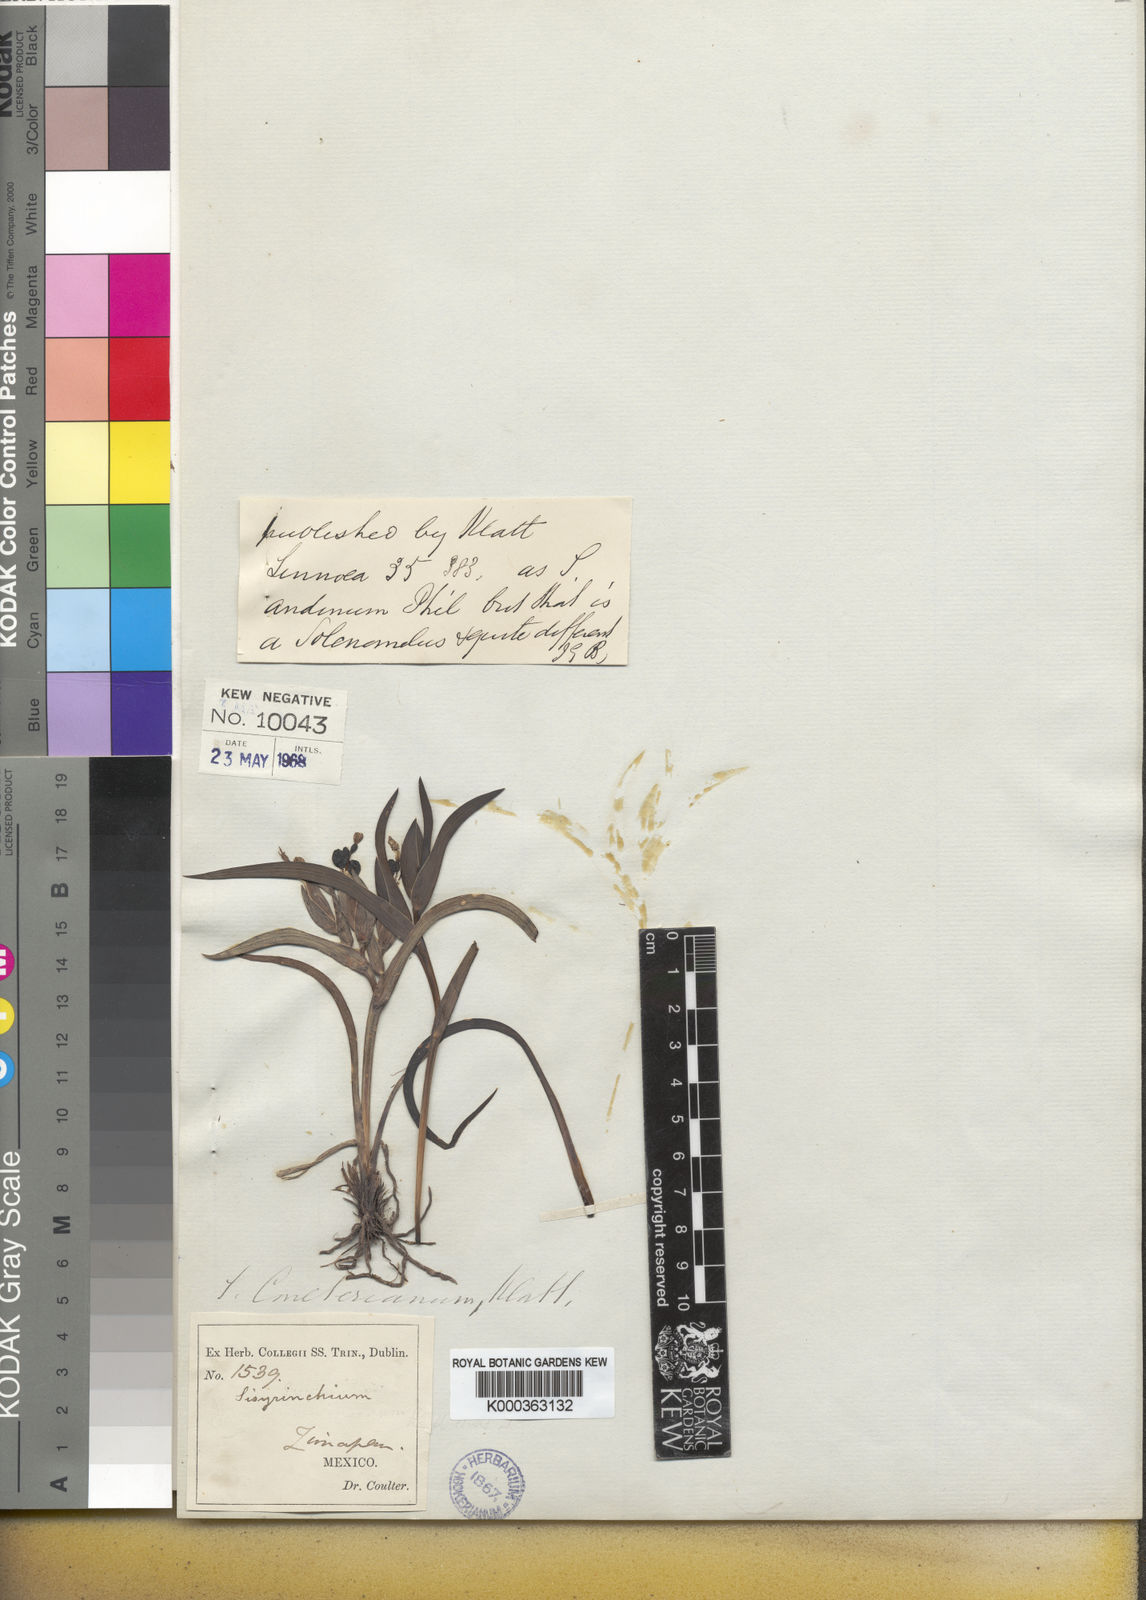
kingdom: Plantae
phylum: Tracheophyta
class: Liliopsida
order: Asparagales
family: Iridaceae
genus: Sisyrinchium
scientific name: Sisyrinchium coulterianum
